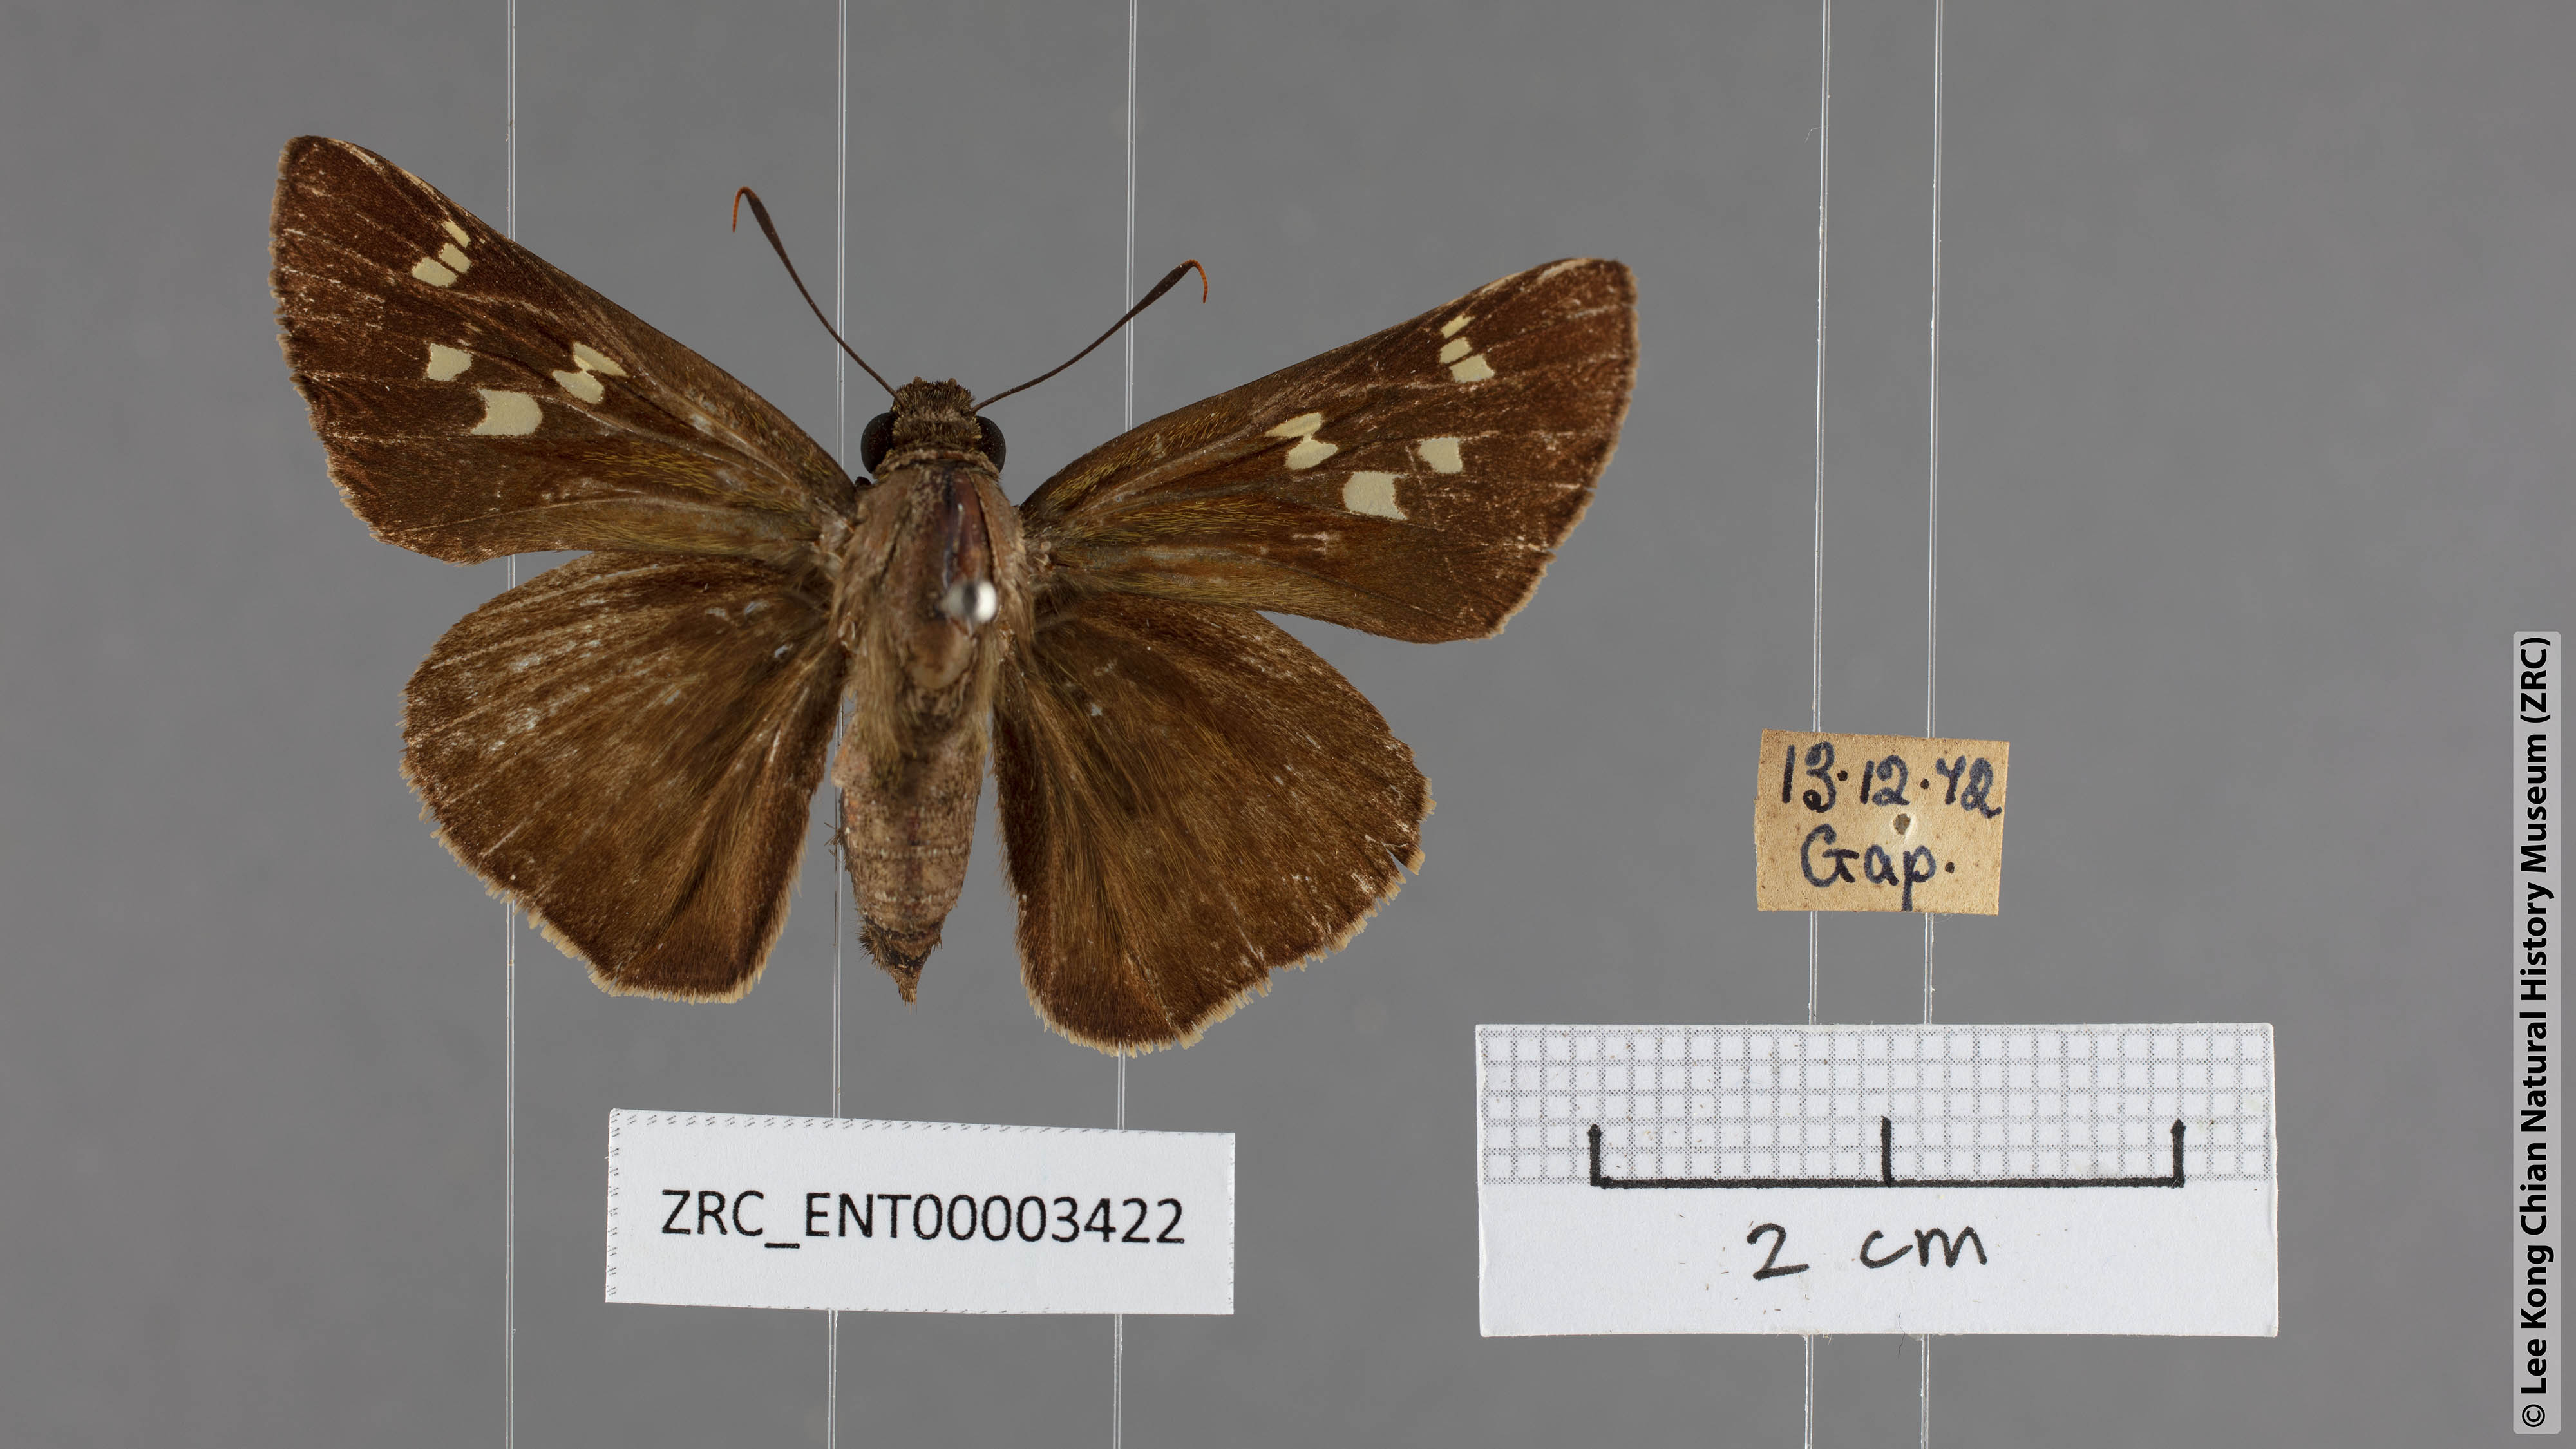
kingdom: Animalia
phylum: Arthropoda
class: Insecta
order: Lepidoptera
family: Hesperiidae
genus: Pithauria
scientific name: Pithauria marsena
